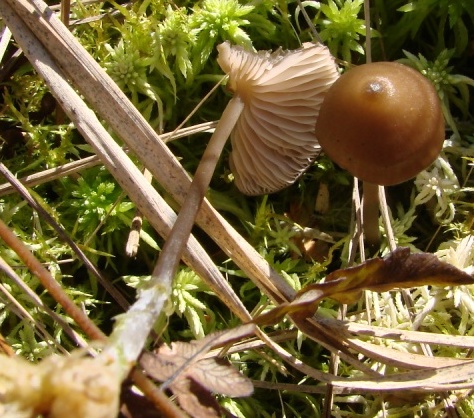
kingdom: Fungi
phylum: Basidiomycota
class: Agaricomycetes
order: Agaricales
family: Entolomataceae
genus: Entoloma
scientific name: Entoloma infula
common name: hvidbladet rødblad
